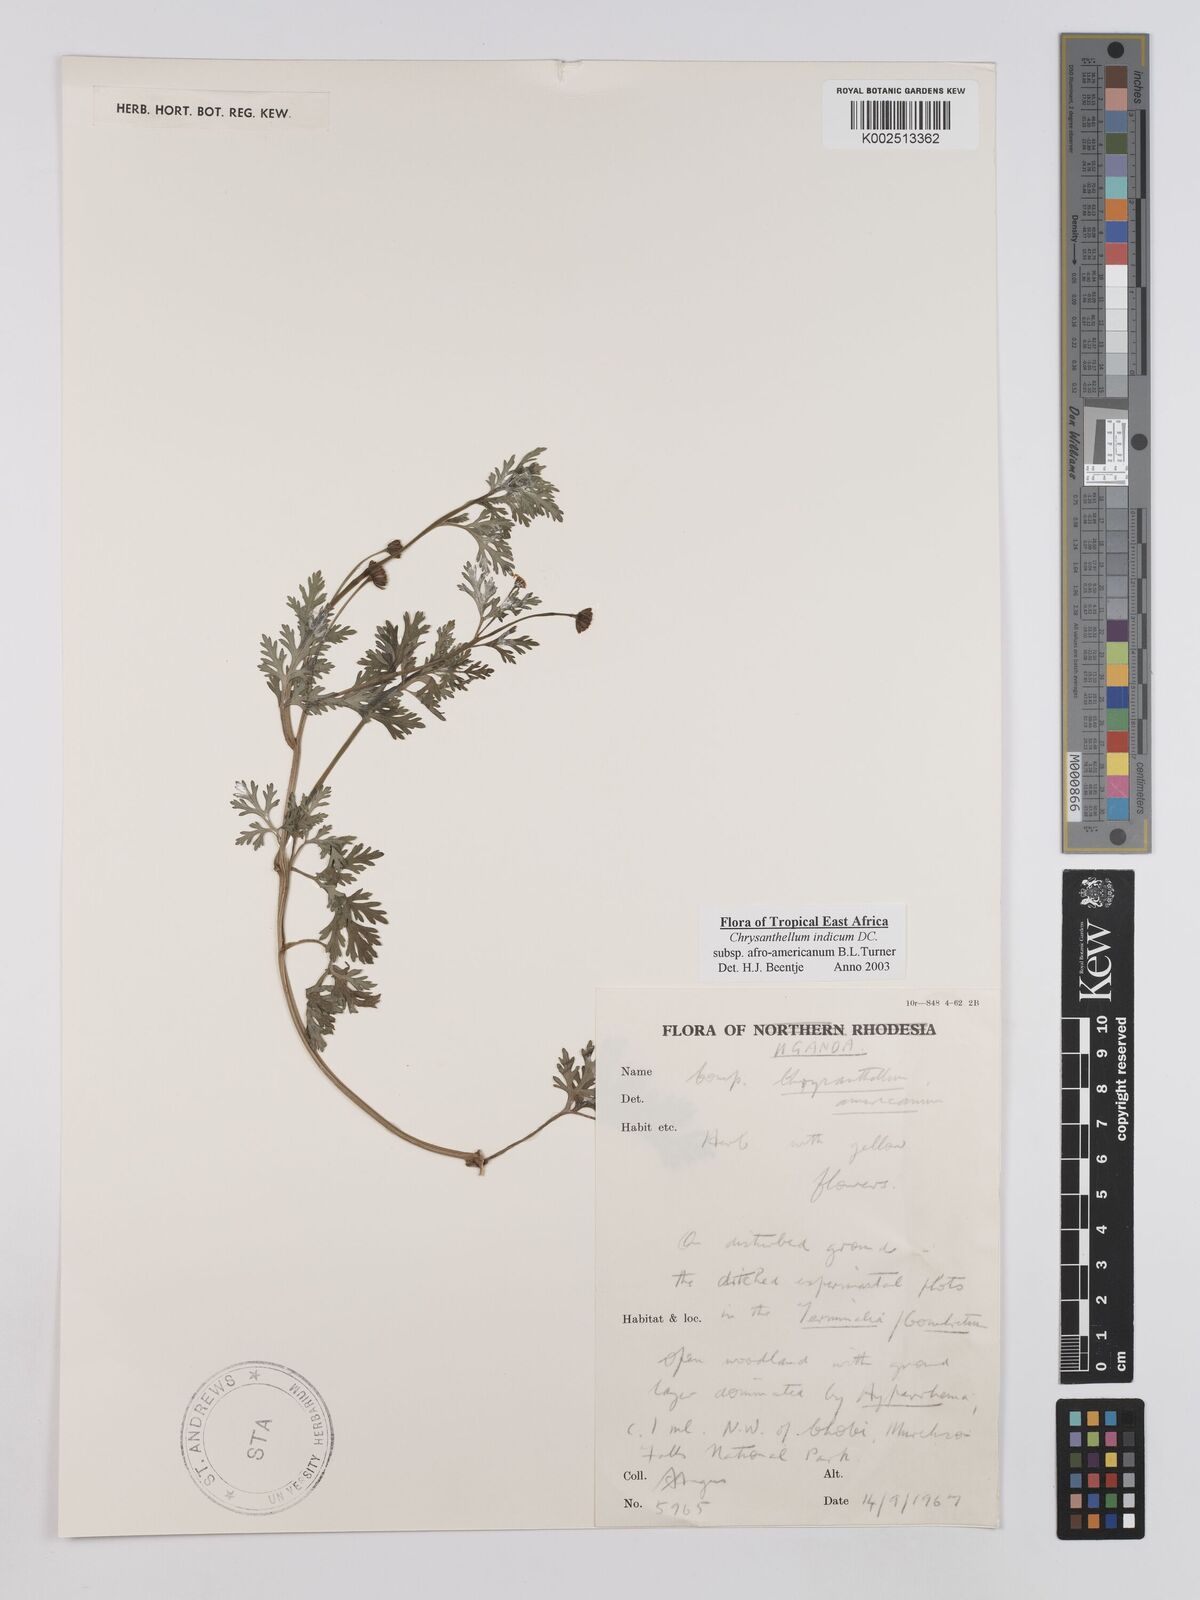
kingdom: Plantae
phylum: Tracheophyta
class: Magnoliopsida
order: Asterales
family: Asteraceae
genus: Chrysanthellum
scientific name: Chrysanthellum indicum
